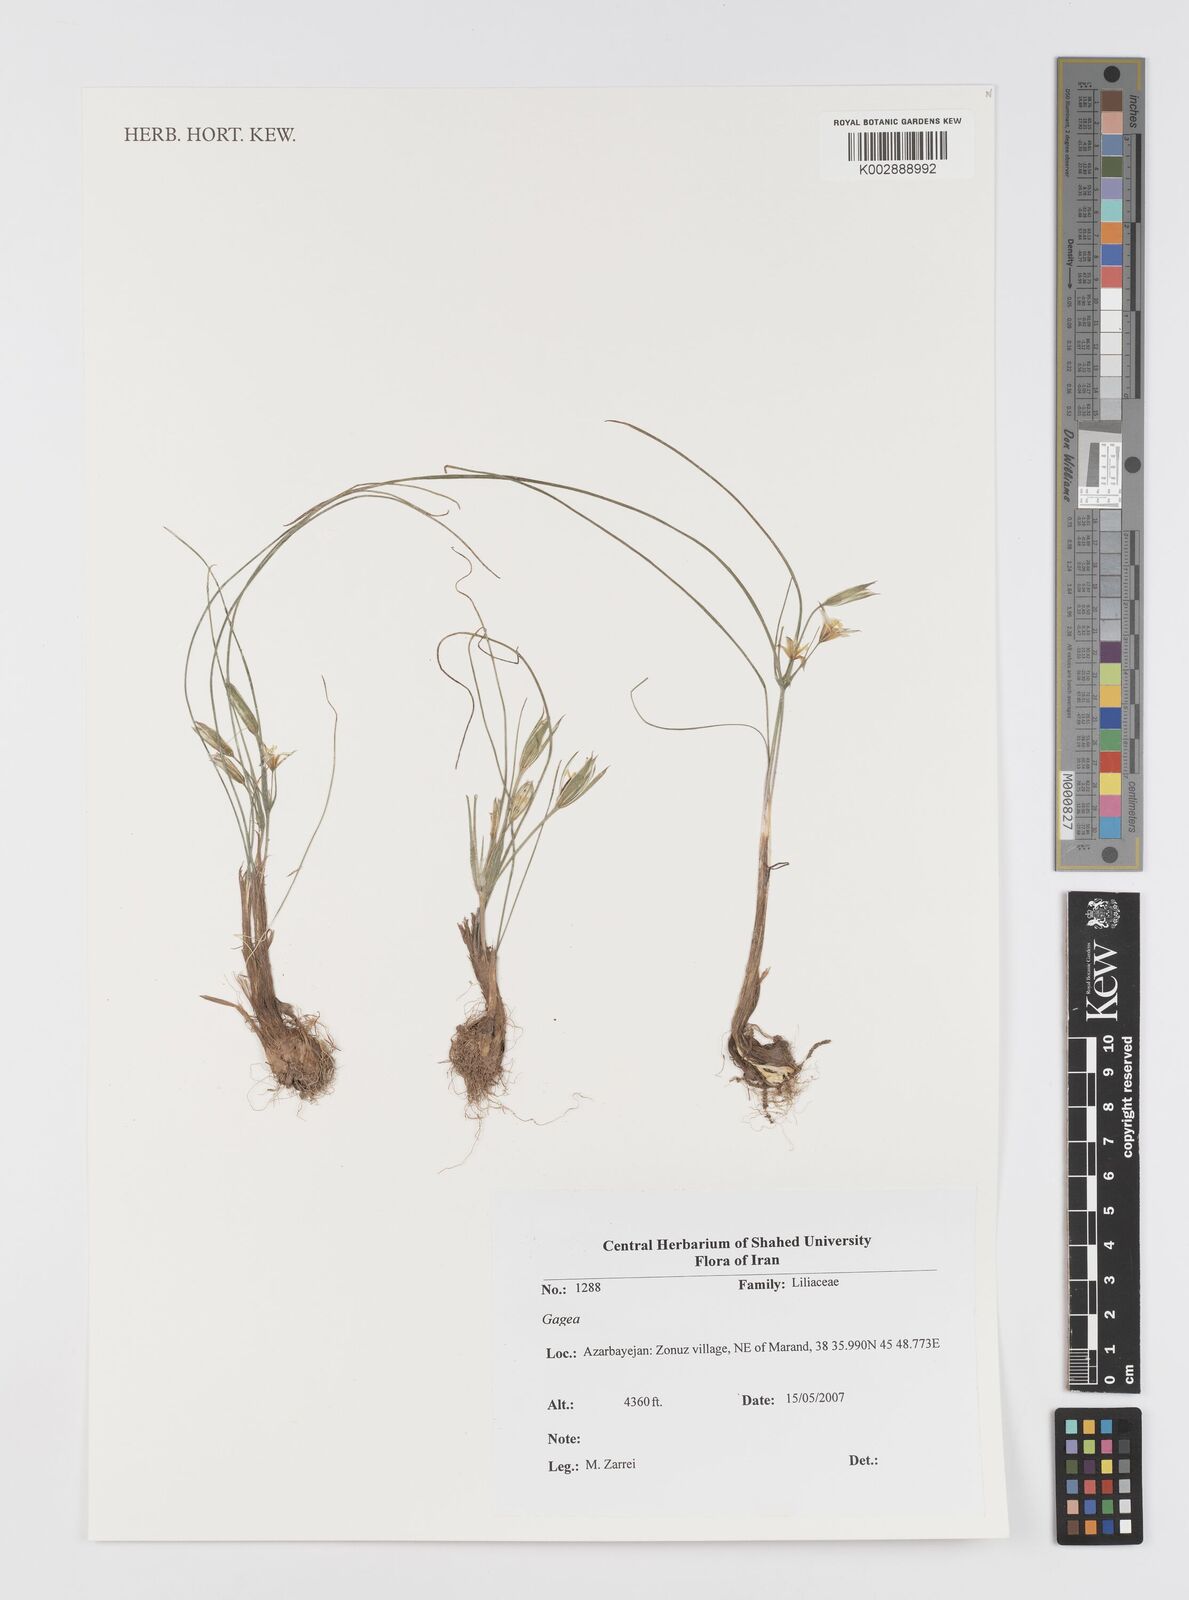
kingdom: Plantae
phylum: Tracheophyta
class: Liliopsida
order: Liliales
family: Liliaceae
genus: Gagea
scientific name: Gagea
